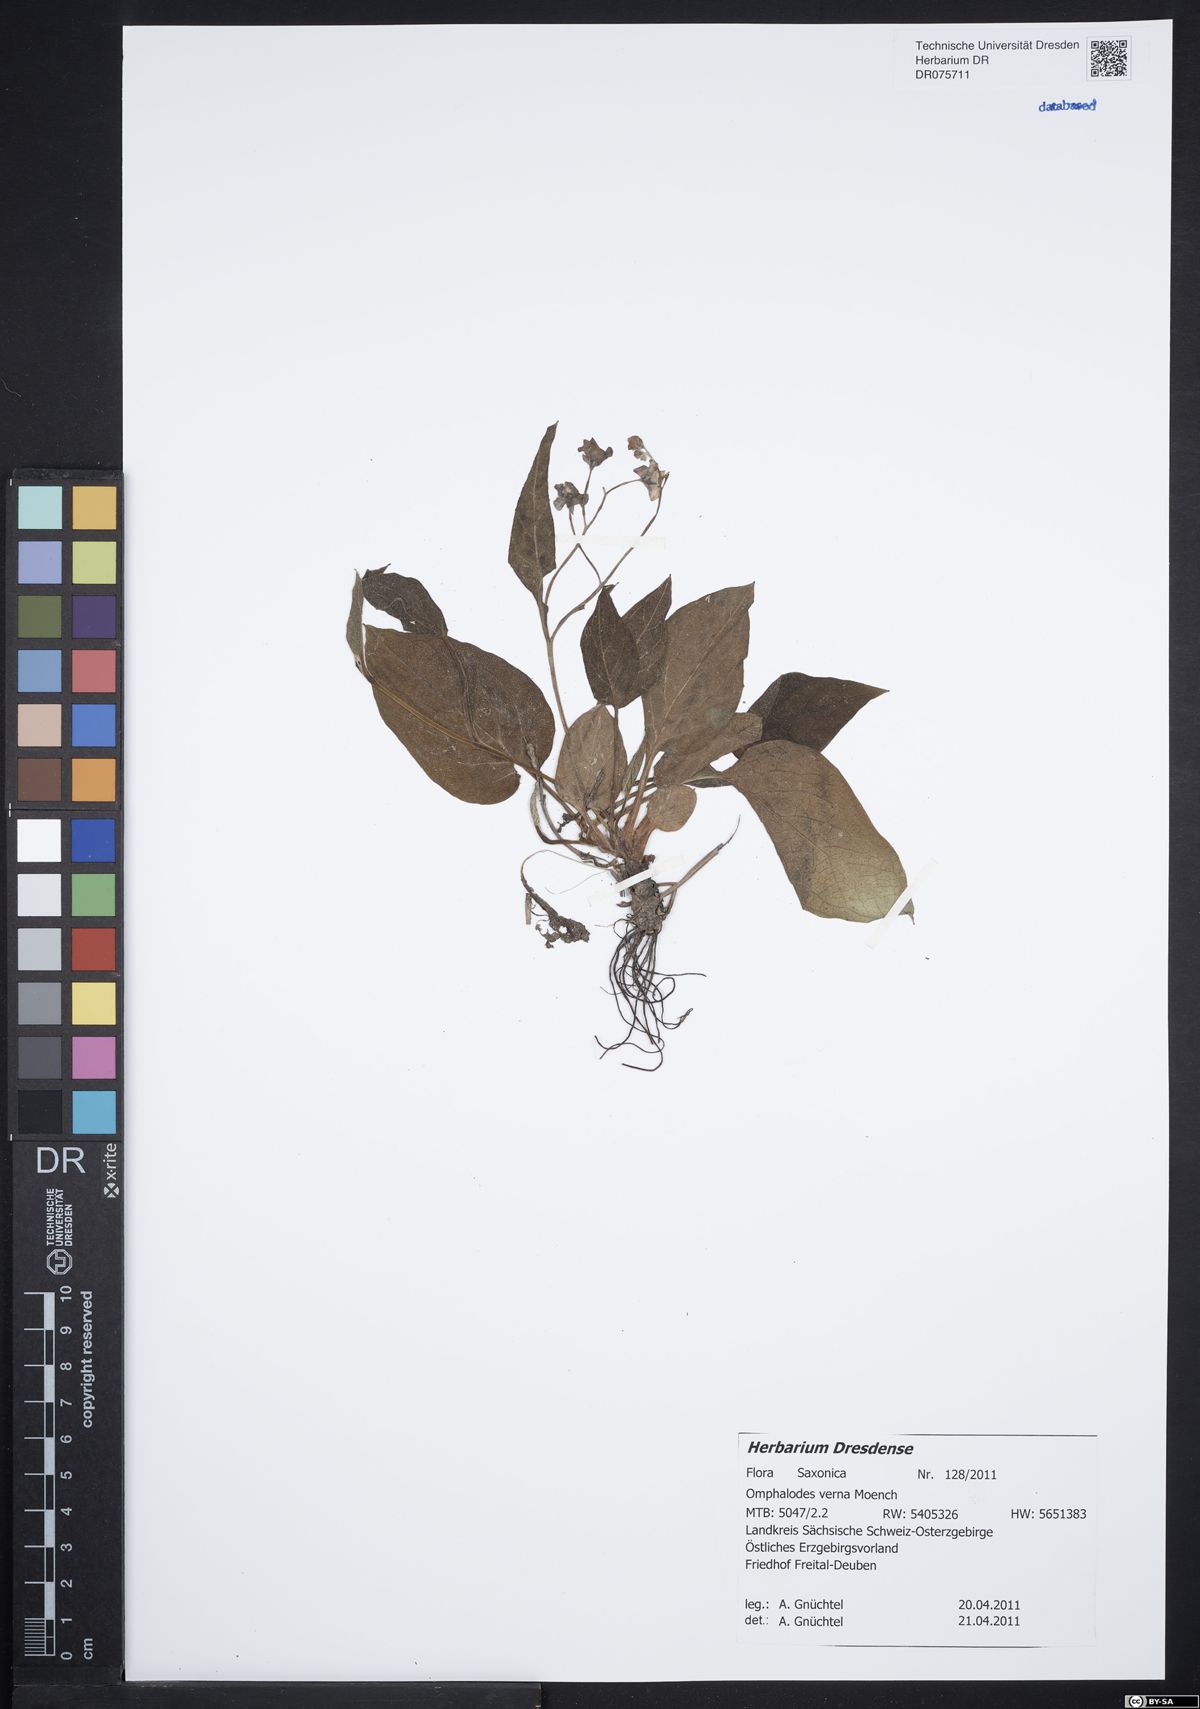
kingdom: Plantae
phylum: Tracheophyta
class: Magnoliopsida
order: Boraginales
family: Boraginaceae
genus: Omphalodes
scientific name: Omphalodes verna
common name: Blue-eyed-mary
